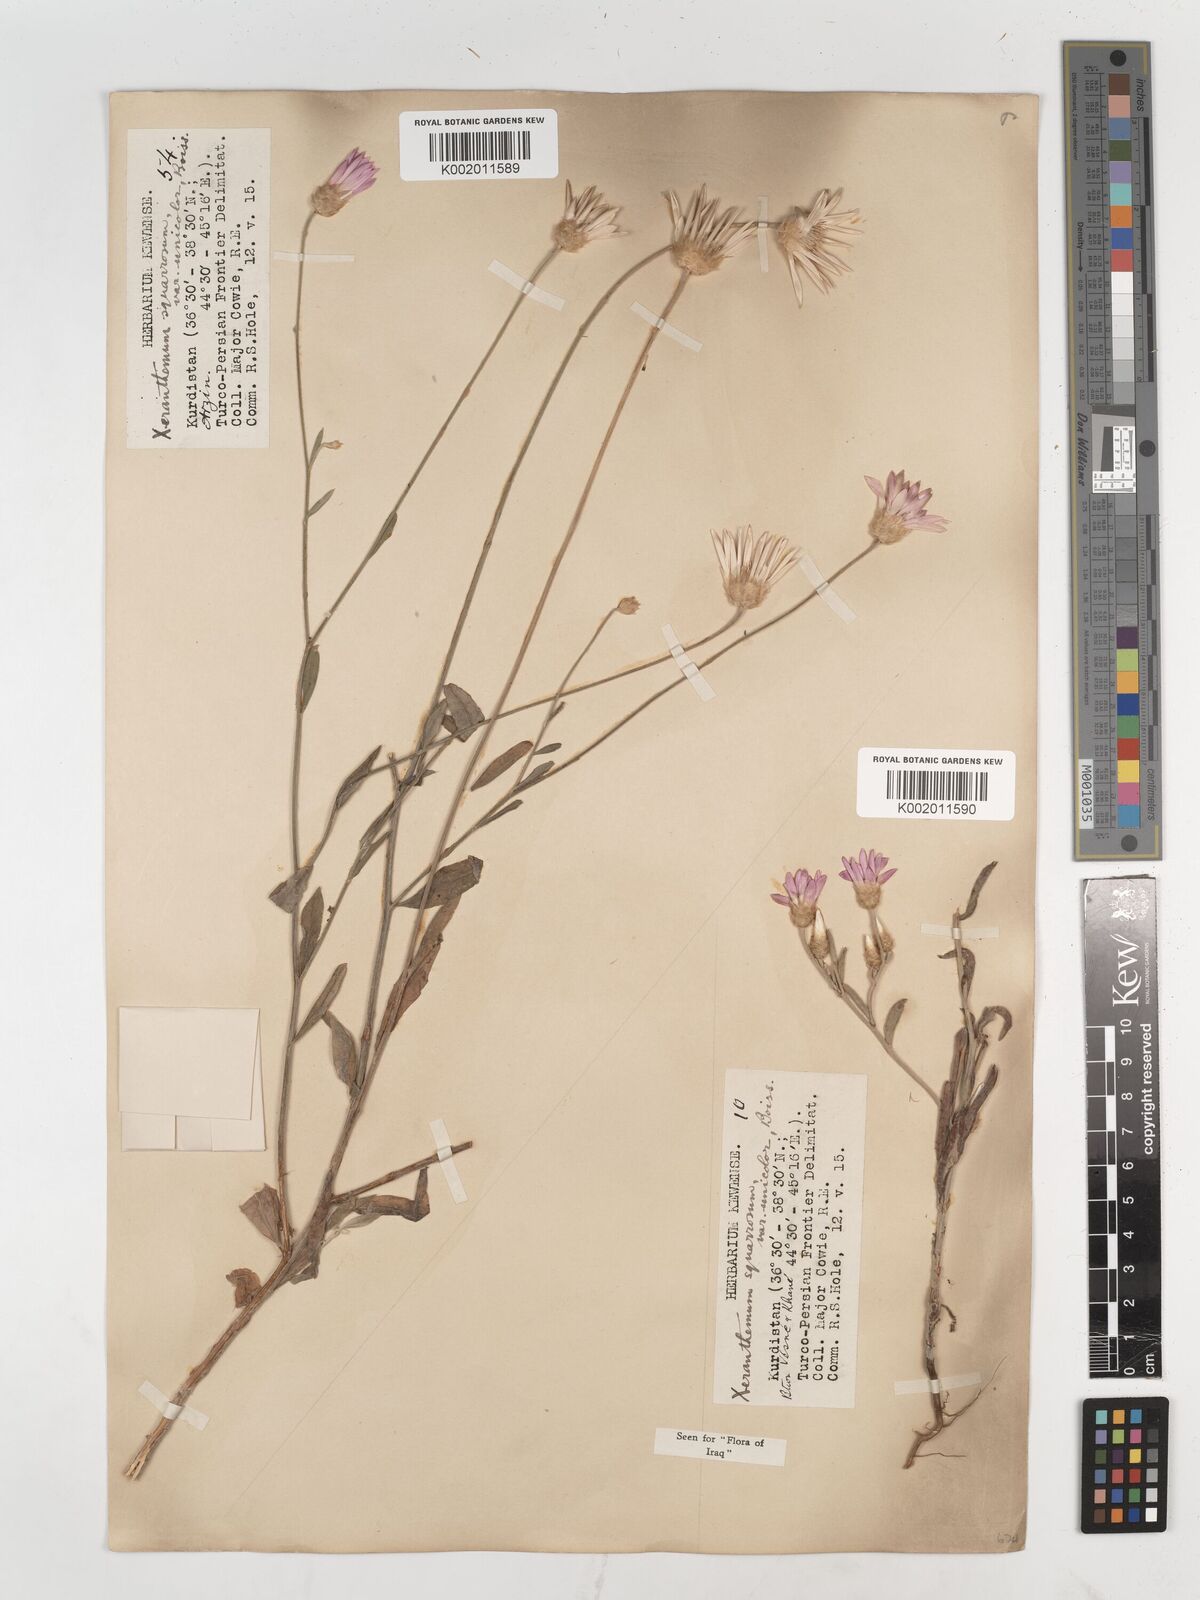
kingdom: Plantae
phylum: Tracheophyta
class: Magnoliopsida
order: Asterales
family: Asteraceae
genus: Xeranthemum
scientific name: Xeranthemum annuum
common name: Immortelle
